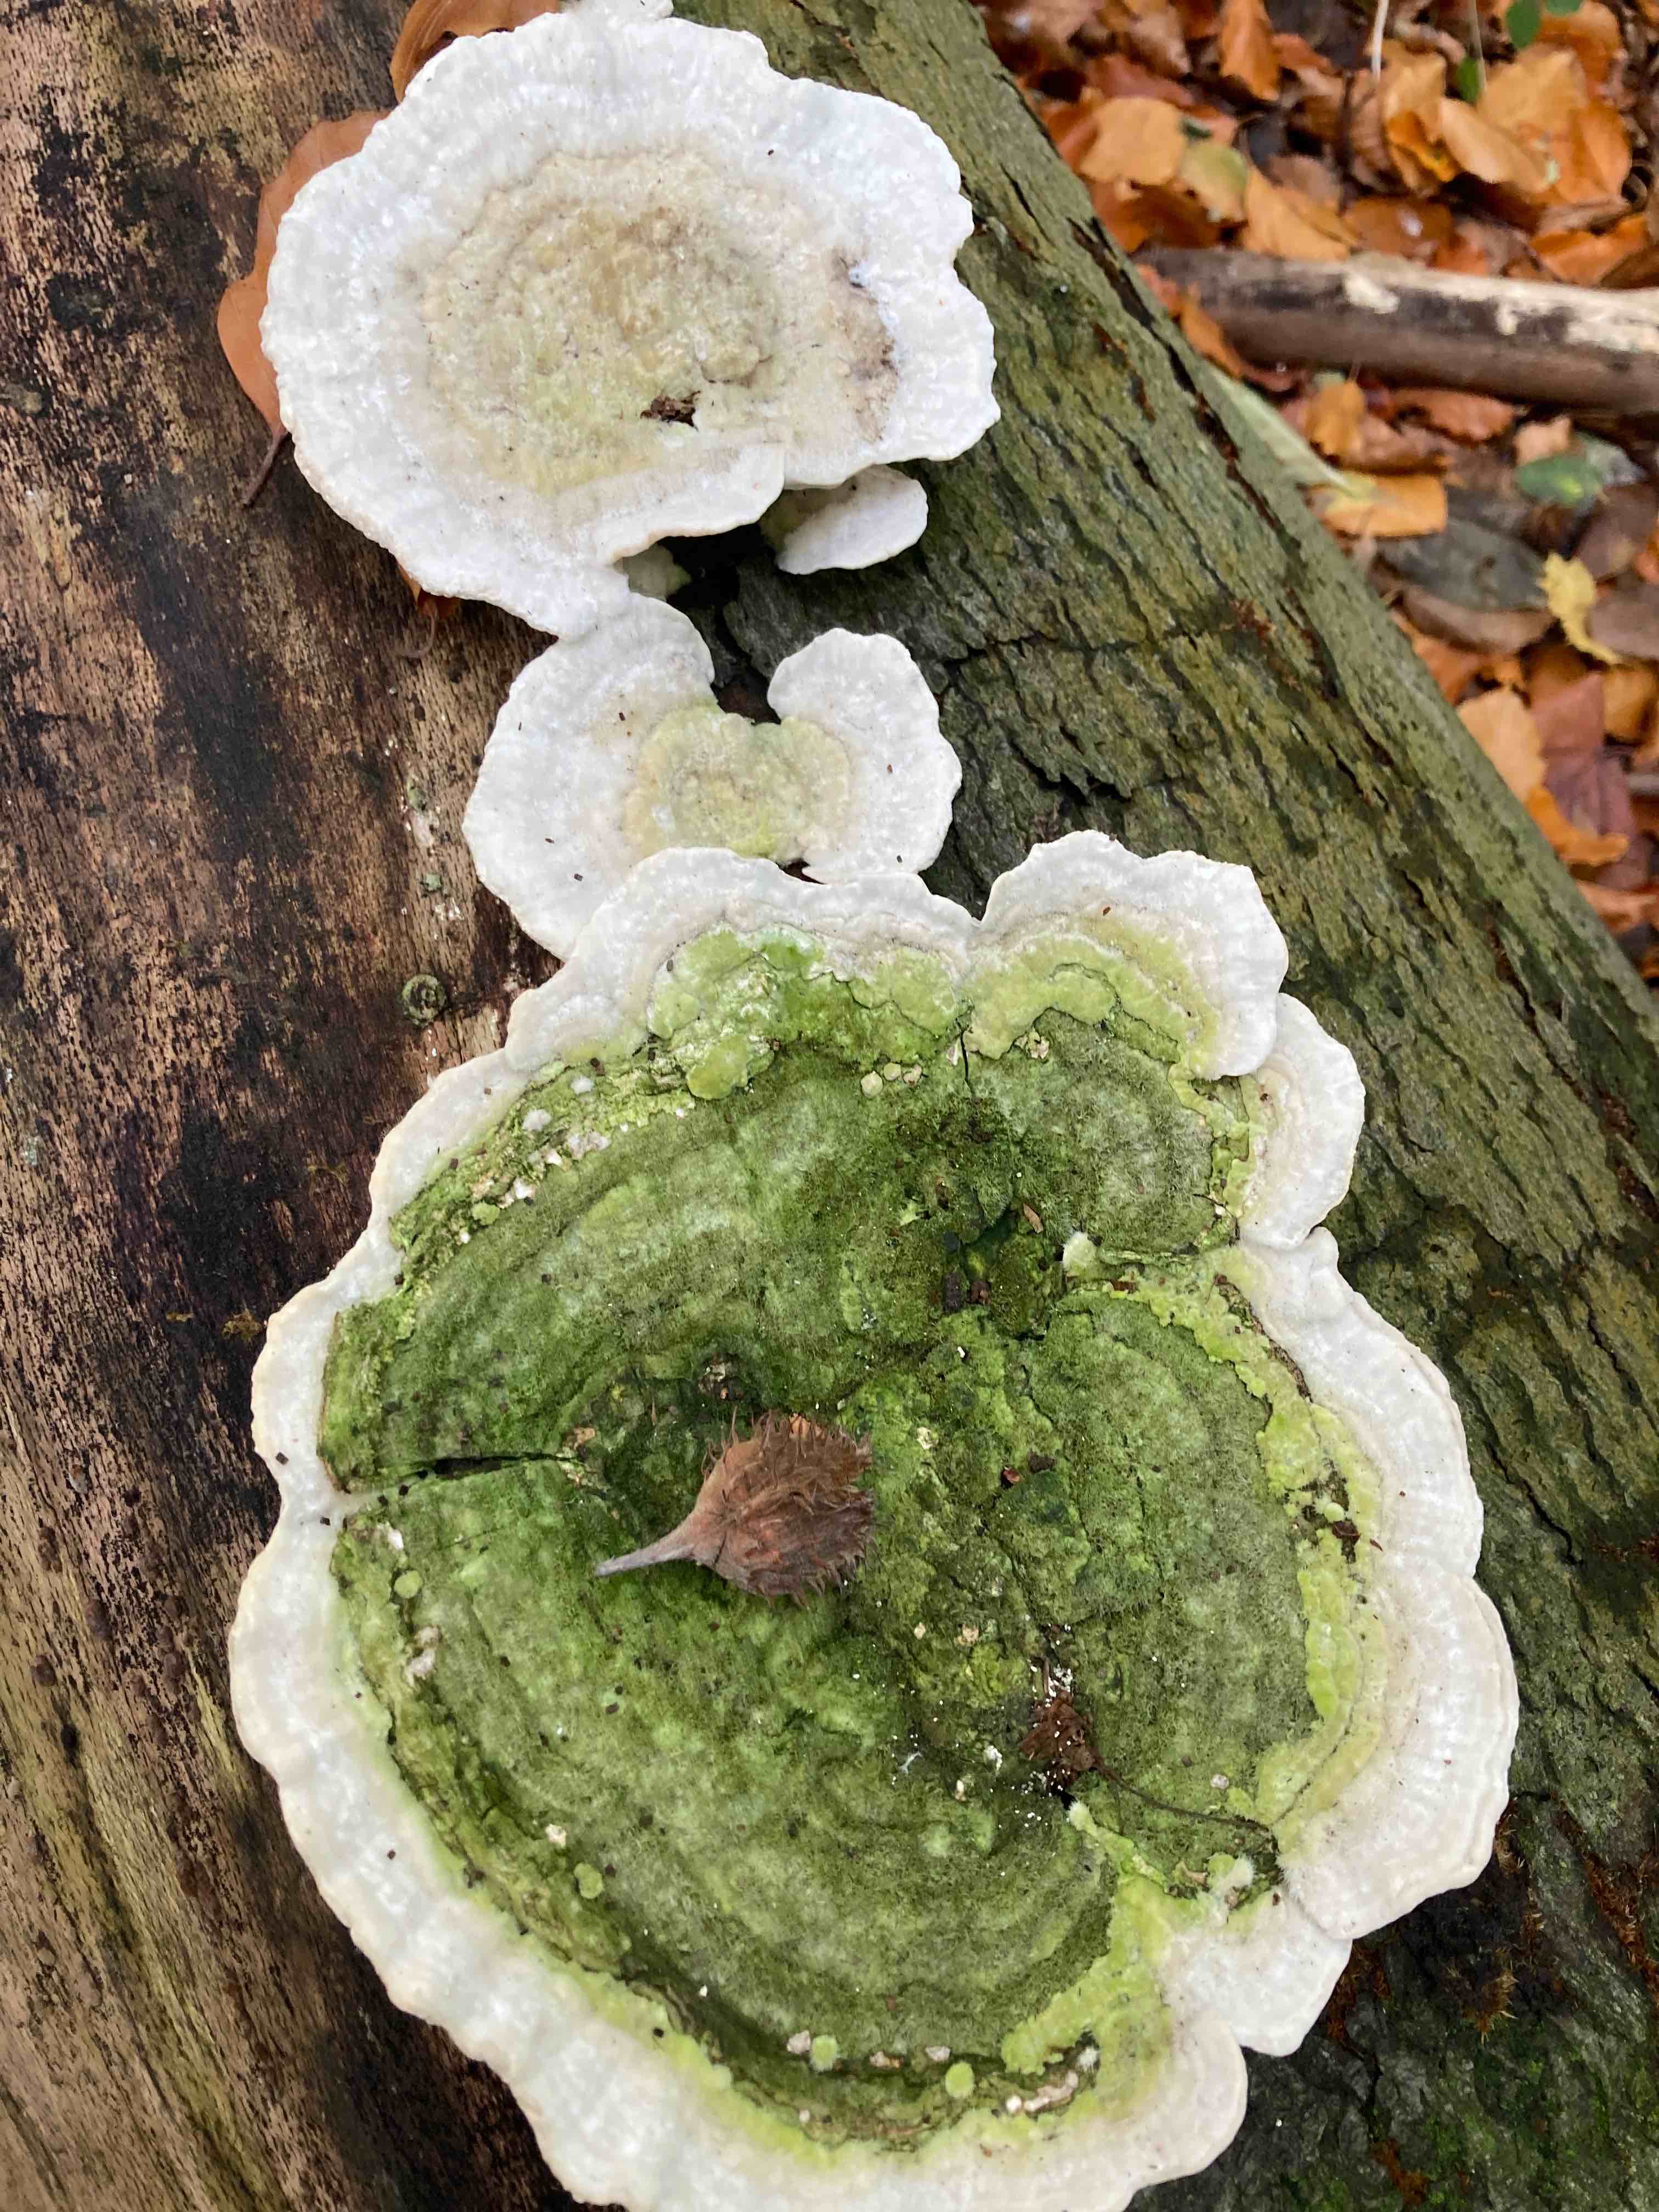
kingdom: Fungi
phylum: Basidiomycota
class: Agaricomycetes
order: Polyporales
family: Polyporaceae
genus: Trametes
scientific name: Trametes gibbosa
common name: puklet læderporesvamp
